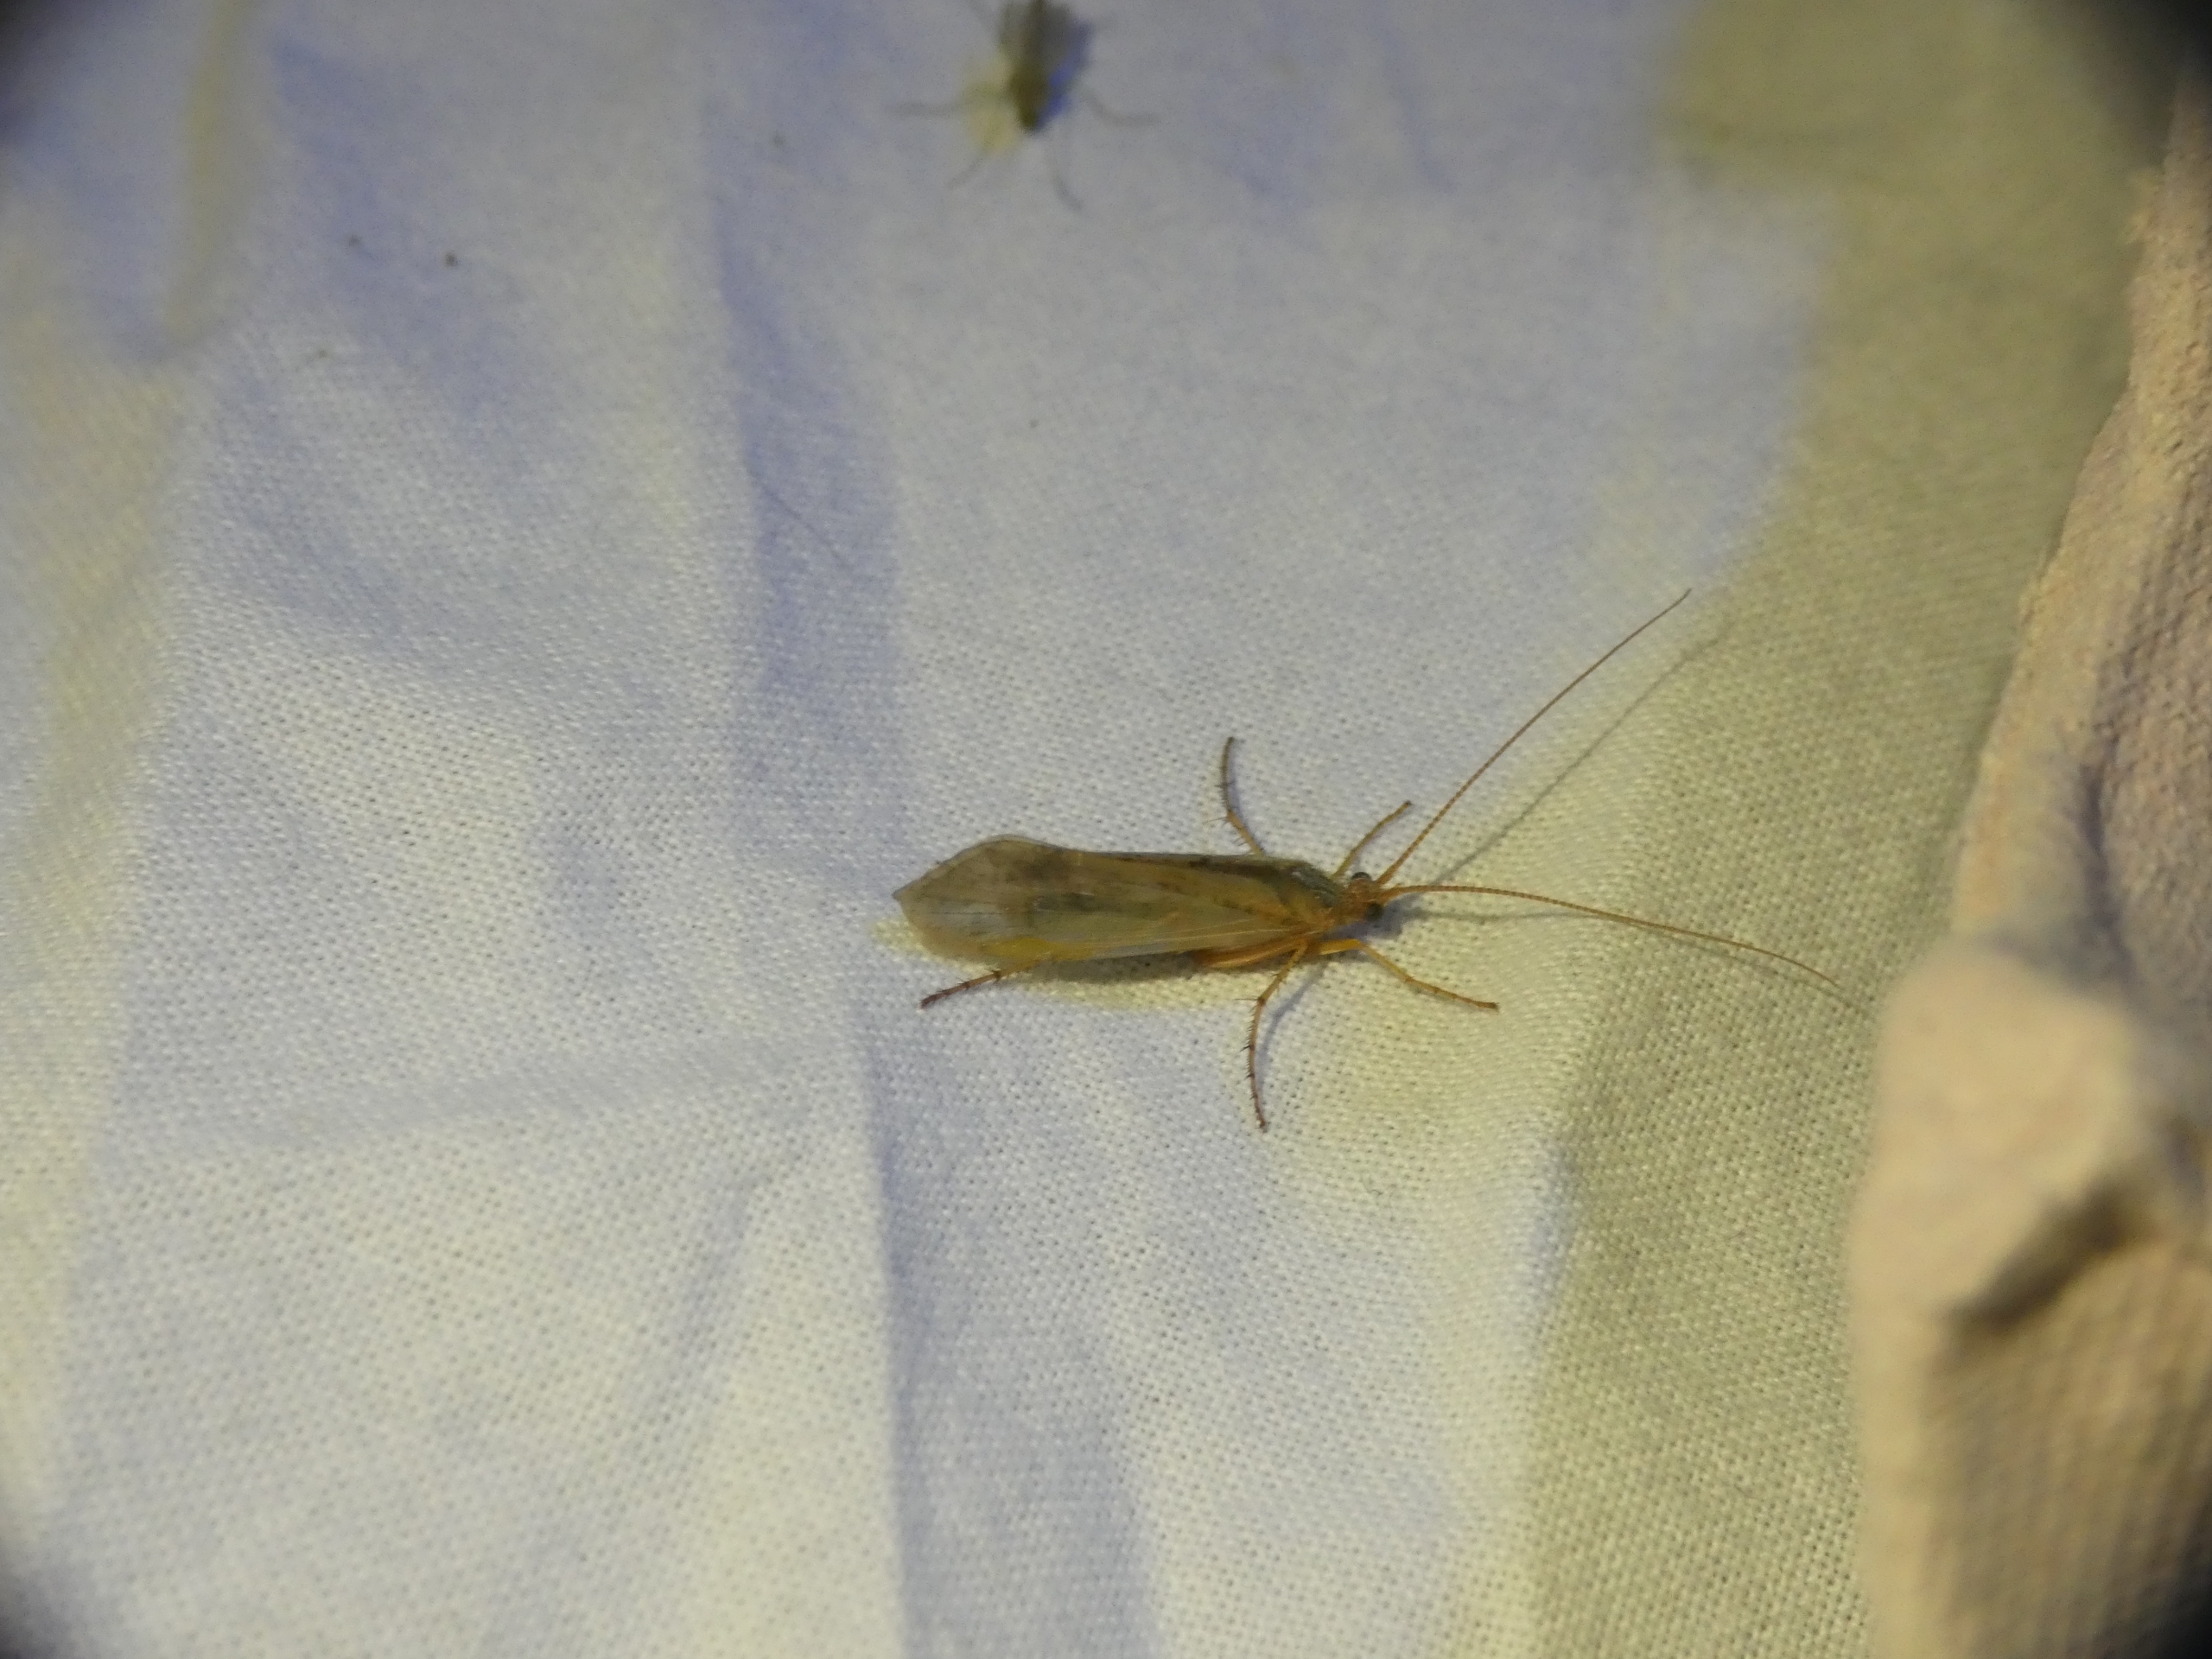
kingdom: Animalia
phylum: Arthropoda
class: Insecta
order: Trichoptera
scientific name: Trichoptera
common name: Vårfluer
